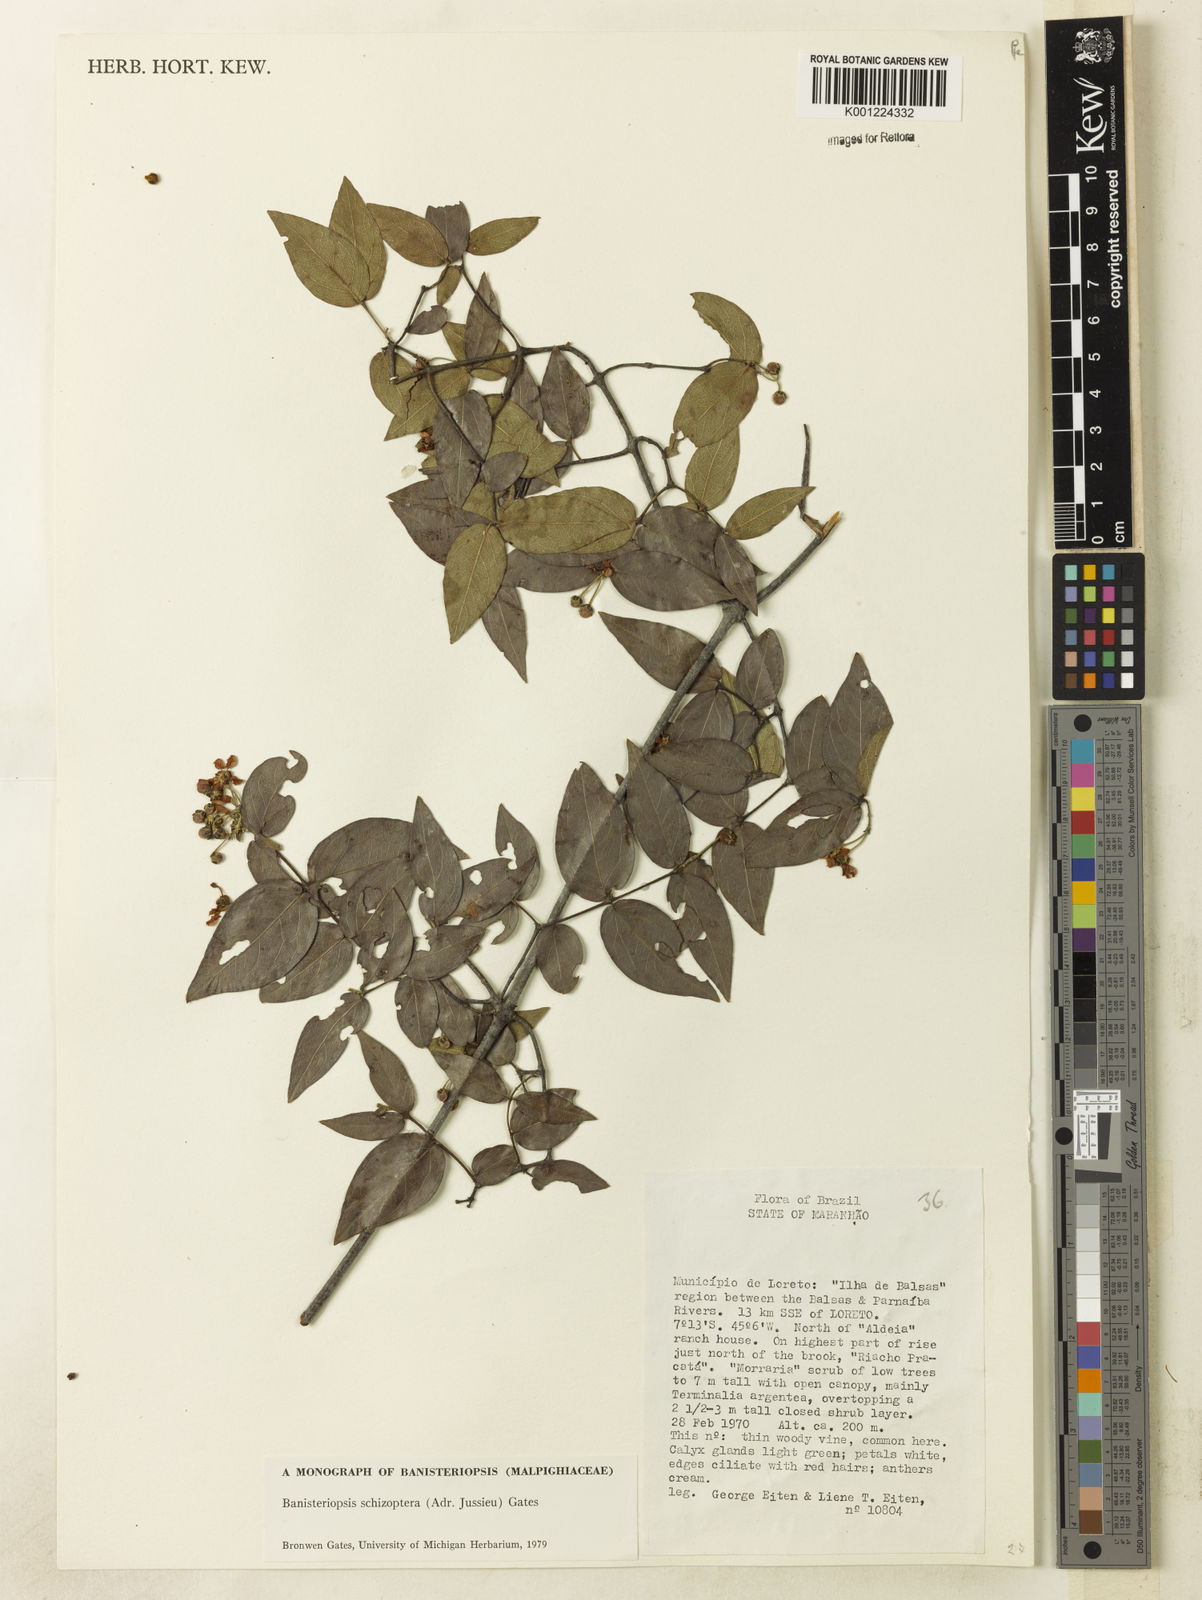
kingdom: Plantae
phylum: Tracheophyta
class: Magnoliopsida
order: Malpighiales
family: Malpighiaceae
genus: Banisteriopsis
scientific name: Banisteriopsis schizoptera
